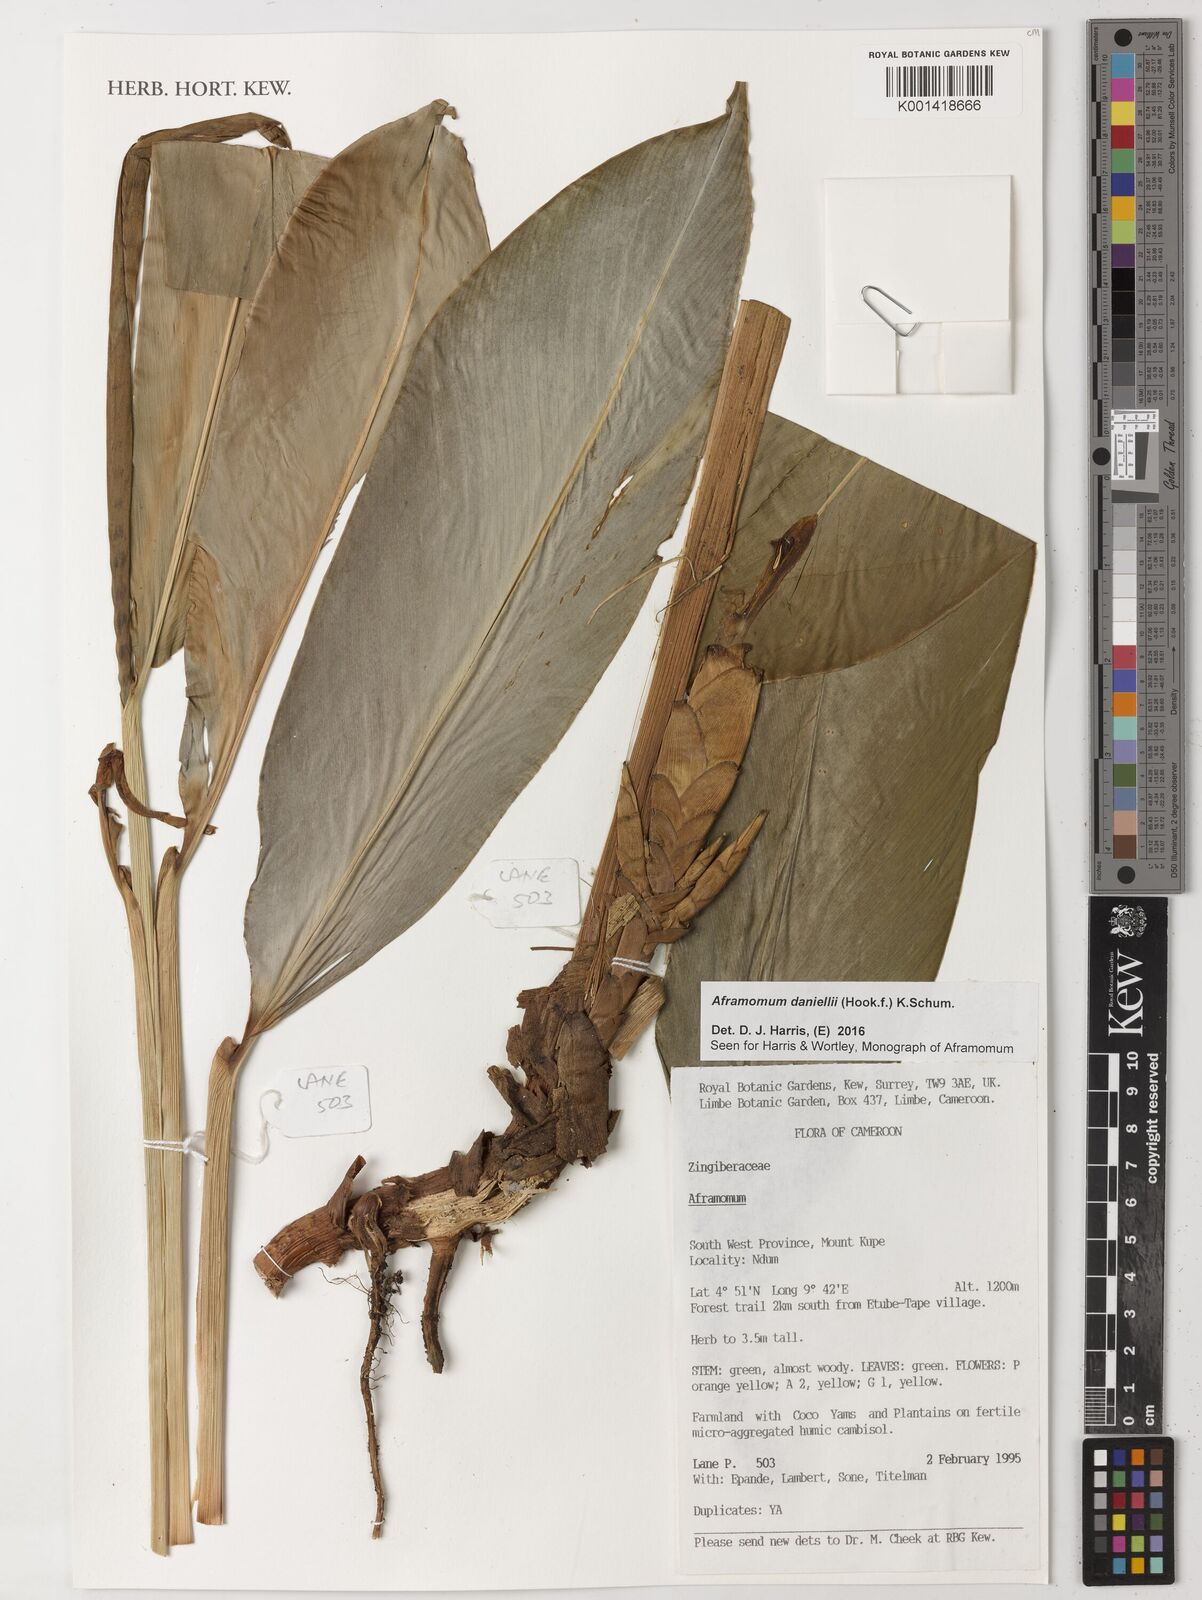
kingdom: Plantae
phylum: Tracheophyta
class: Liliopsida
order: Zingiberales
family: Zingiberaceae
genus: Aframomum
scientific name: Aframomum daniellii
